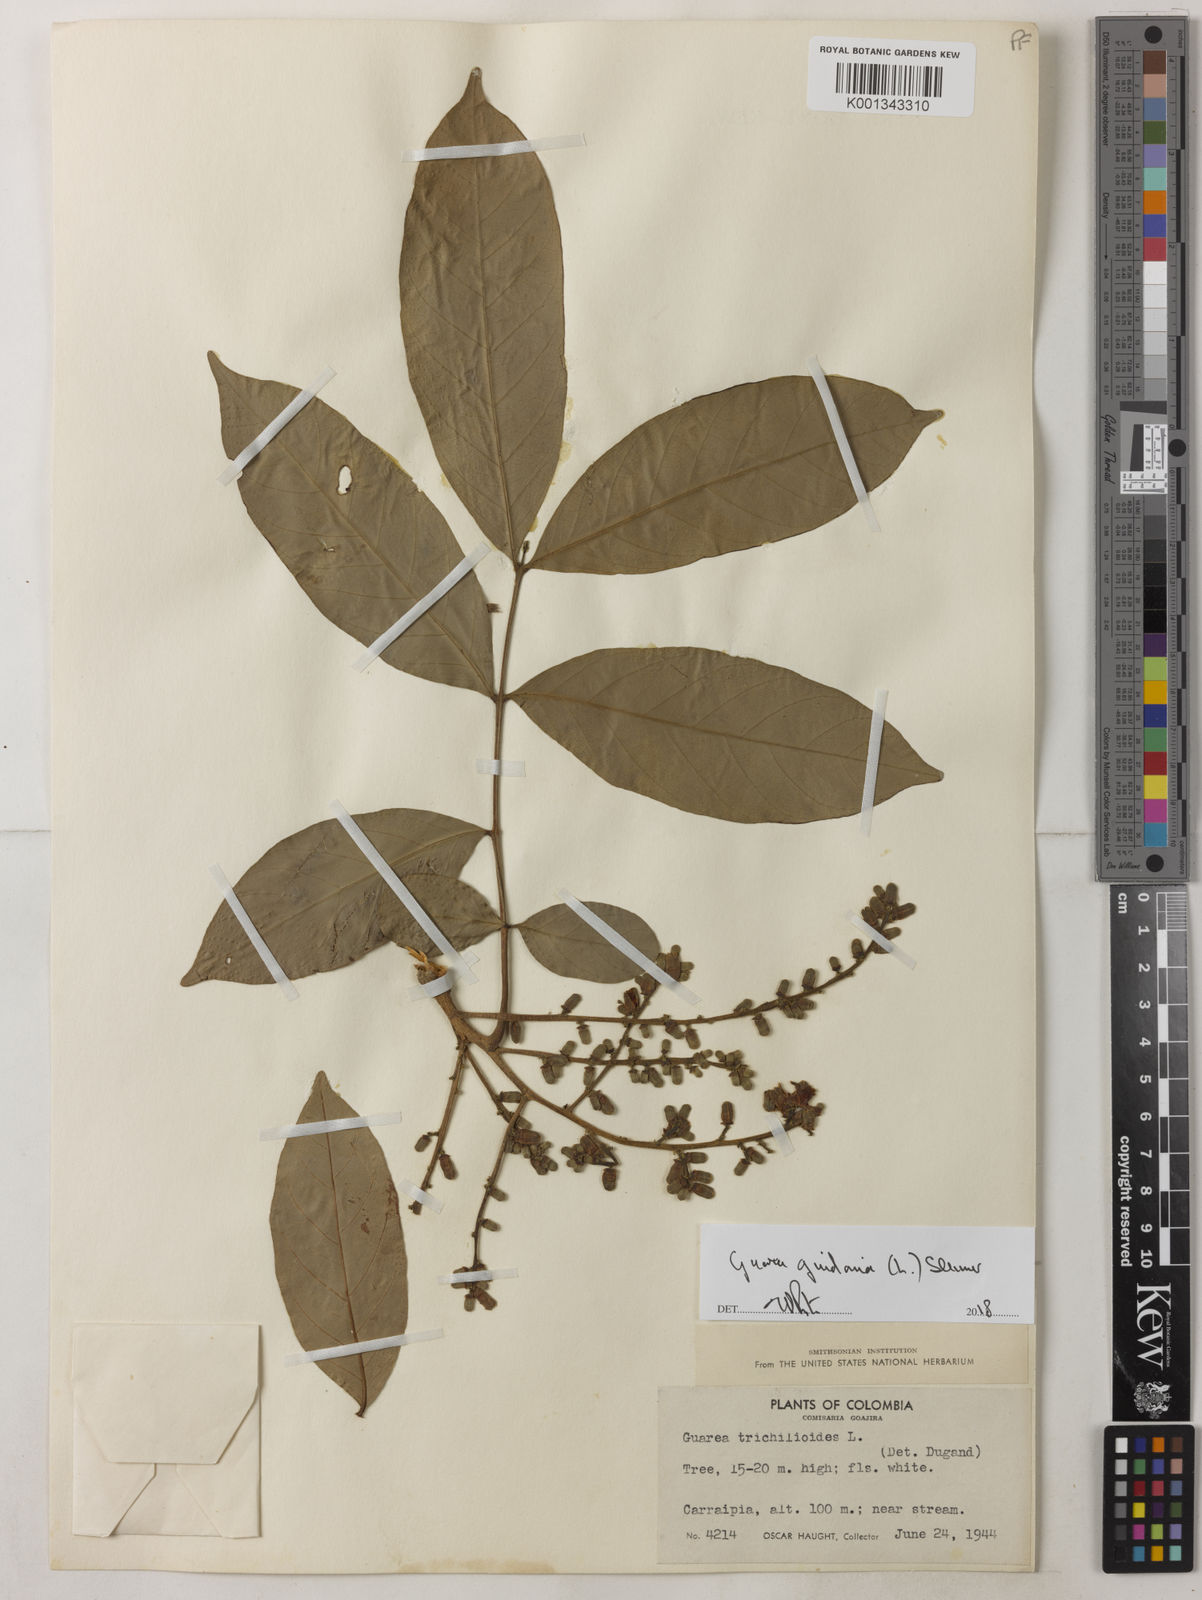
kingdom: Plantae
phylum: Tracheophyta
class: Magnoliopsida
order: Sapindales
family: Meliaceae
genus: Guarea
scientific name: Guarea guidonia
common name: American muskwood
